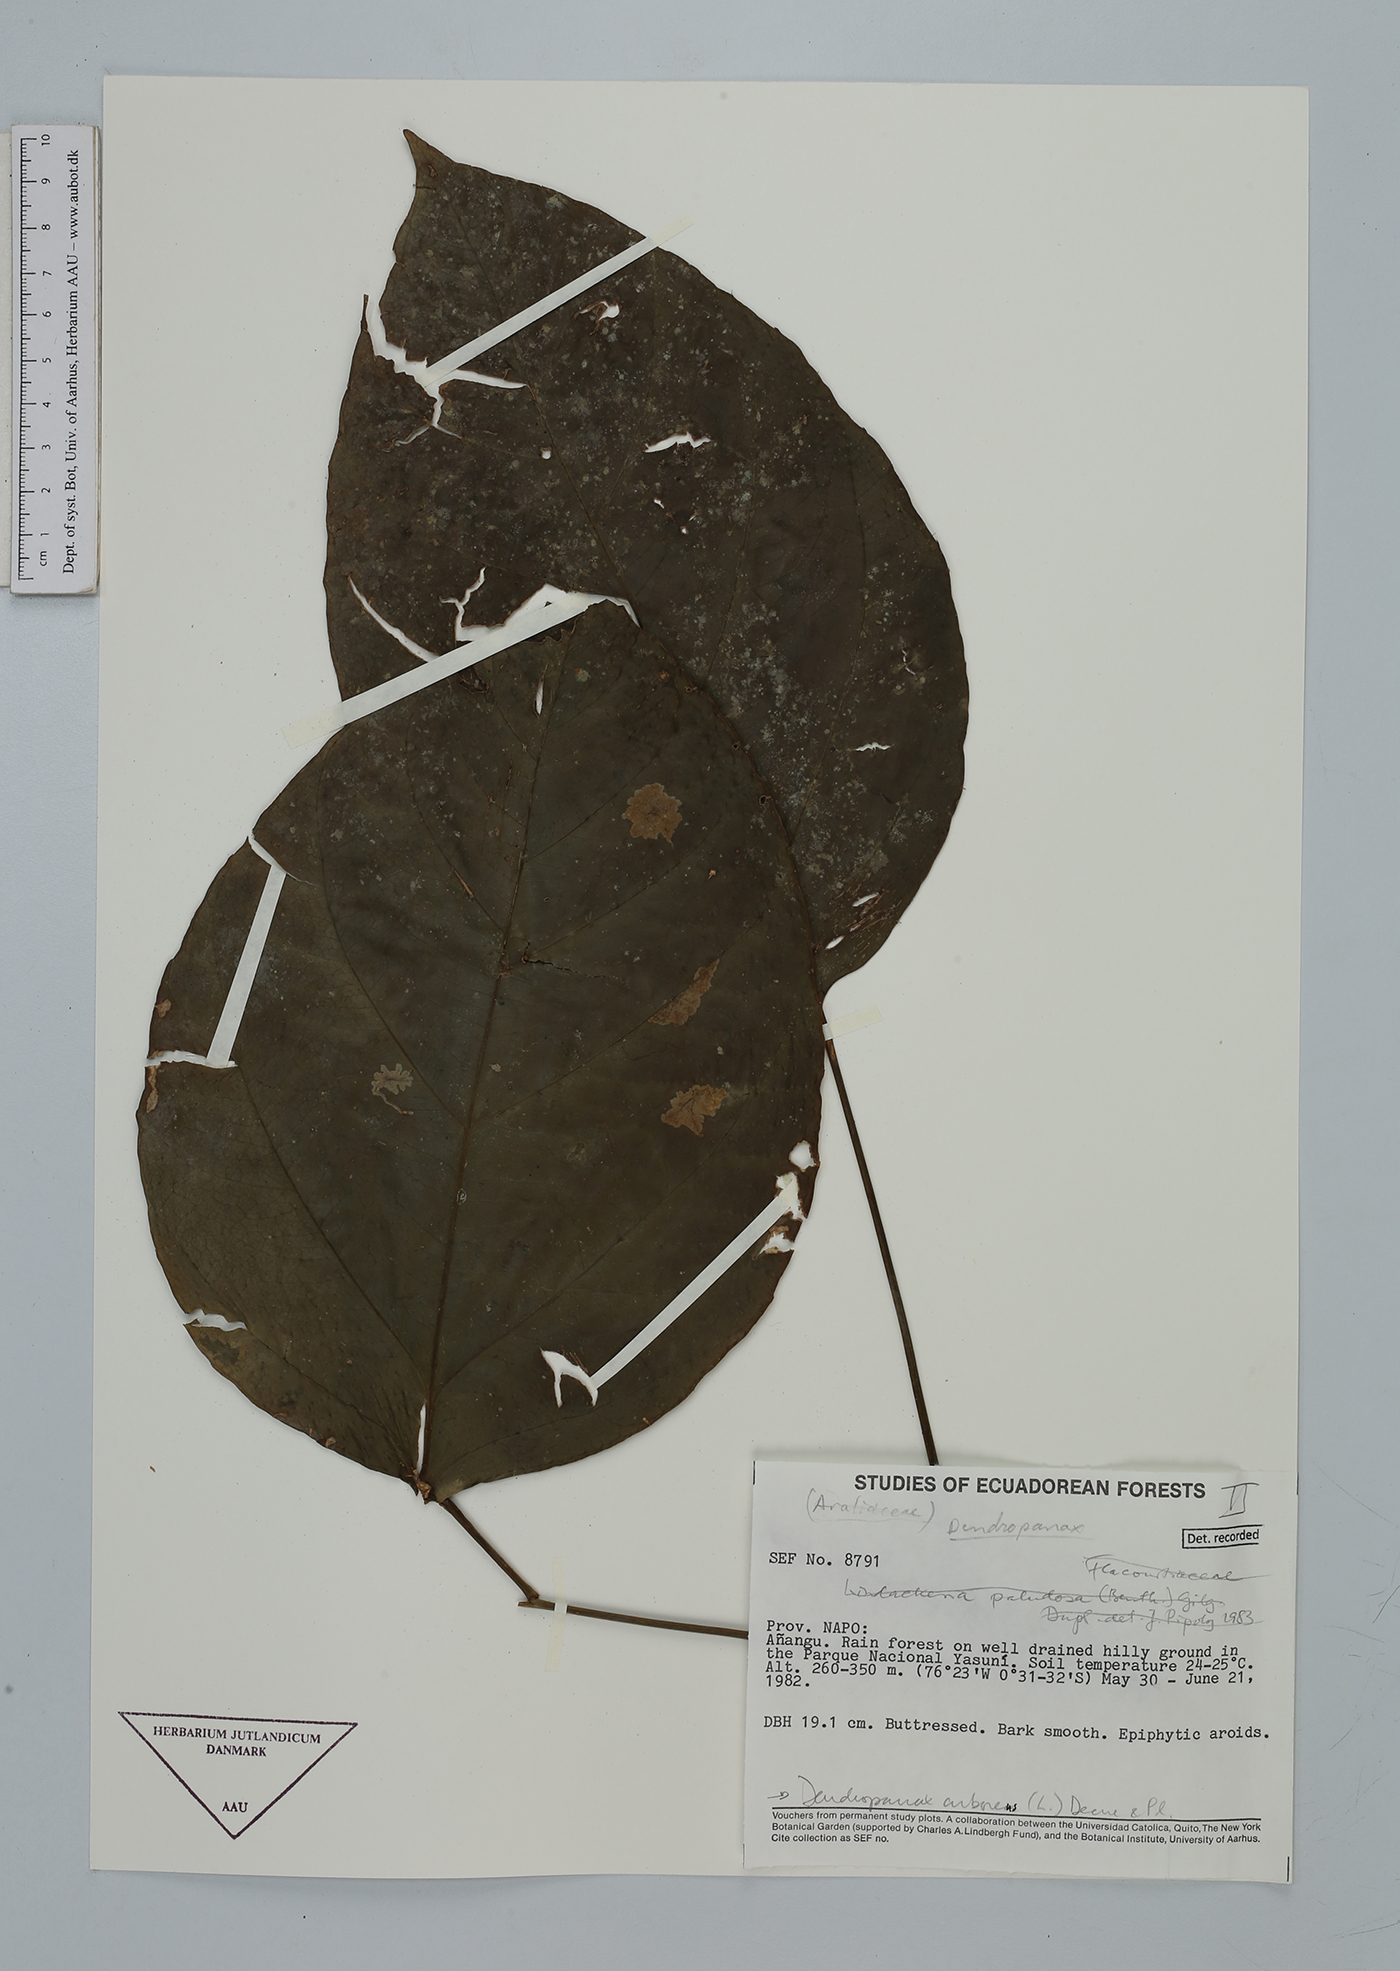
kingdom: Plantae
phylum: Tracheophyta
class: Lycopodiopsida
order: Lycopodiales
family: Lycopodiaceae
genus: Phlegmariurus
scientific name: Phlegmariurus attenuatus
